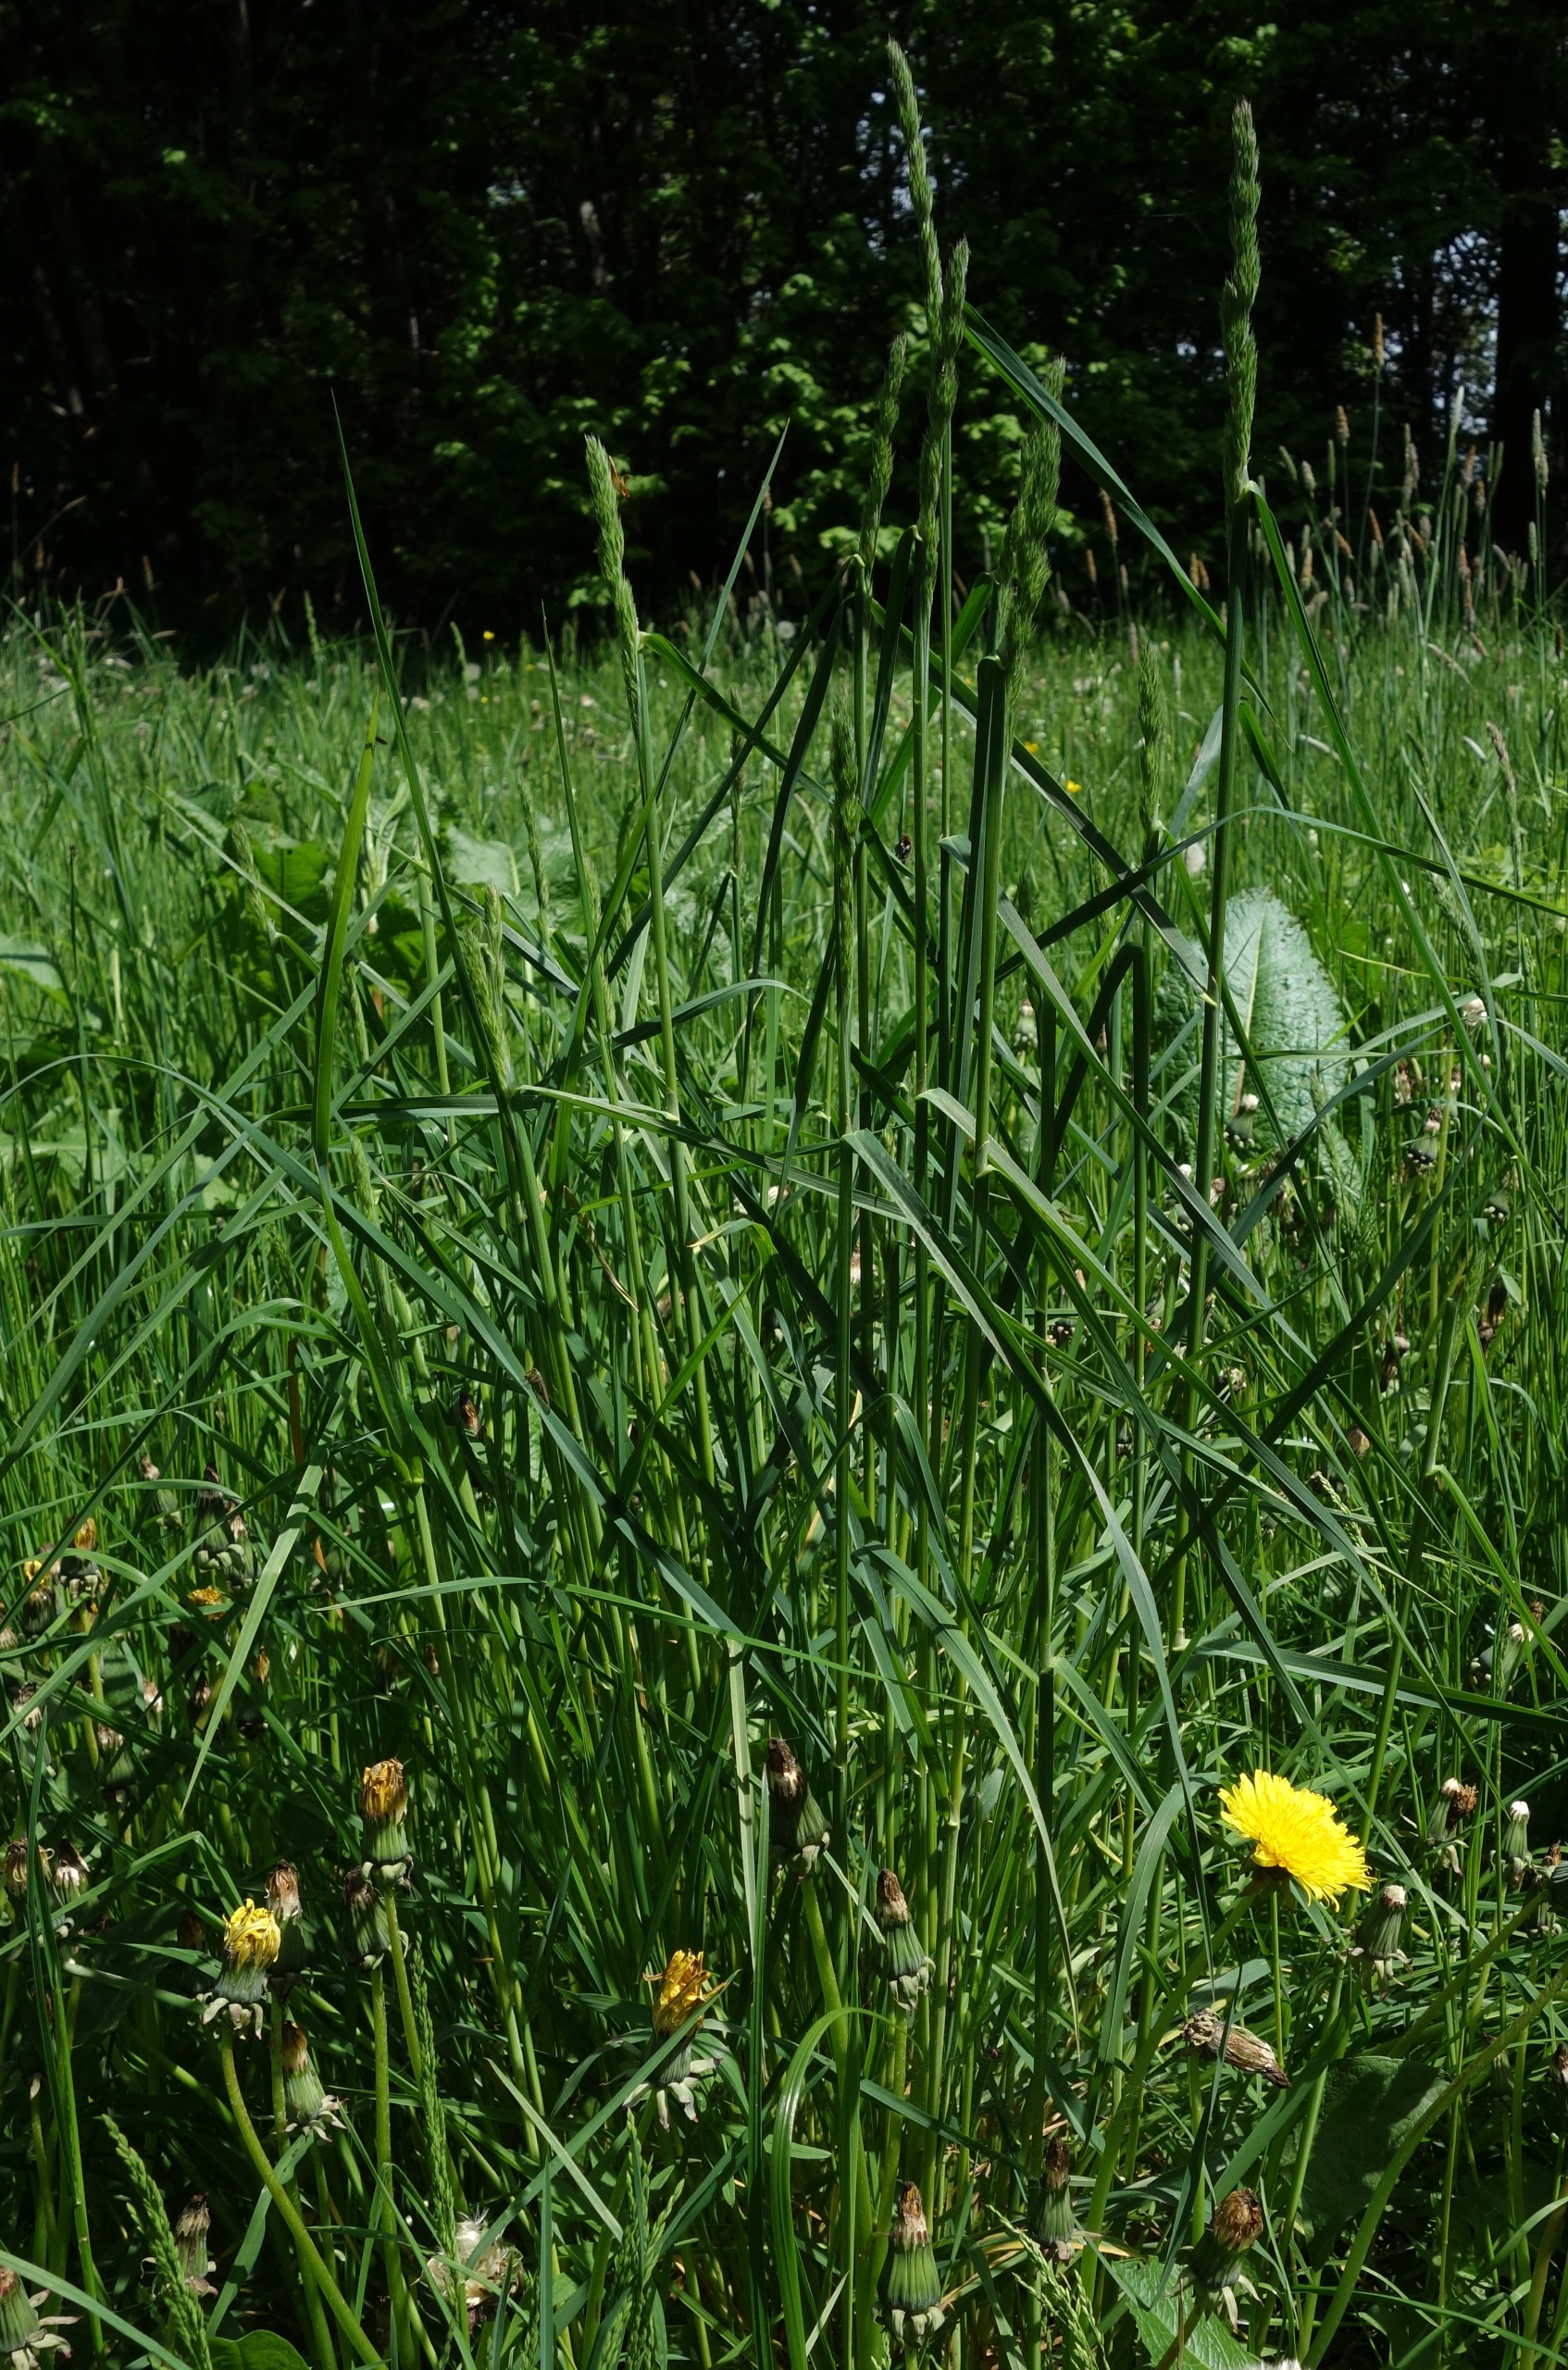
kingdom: Plantae
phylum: Tracheophyta
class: Liliopsida
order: Poales
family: Poaceae
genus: Dactylis
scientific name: Dactylis glomerata
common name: Almindelig hundegræs
